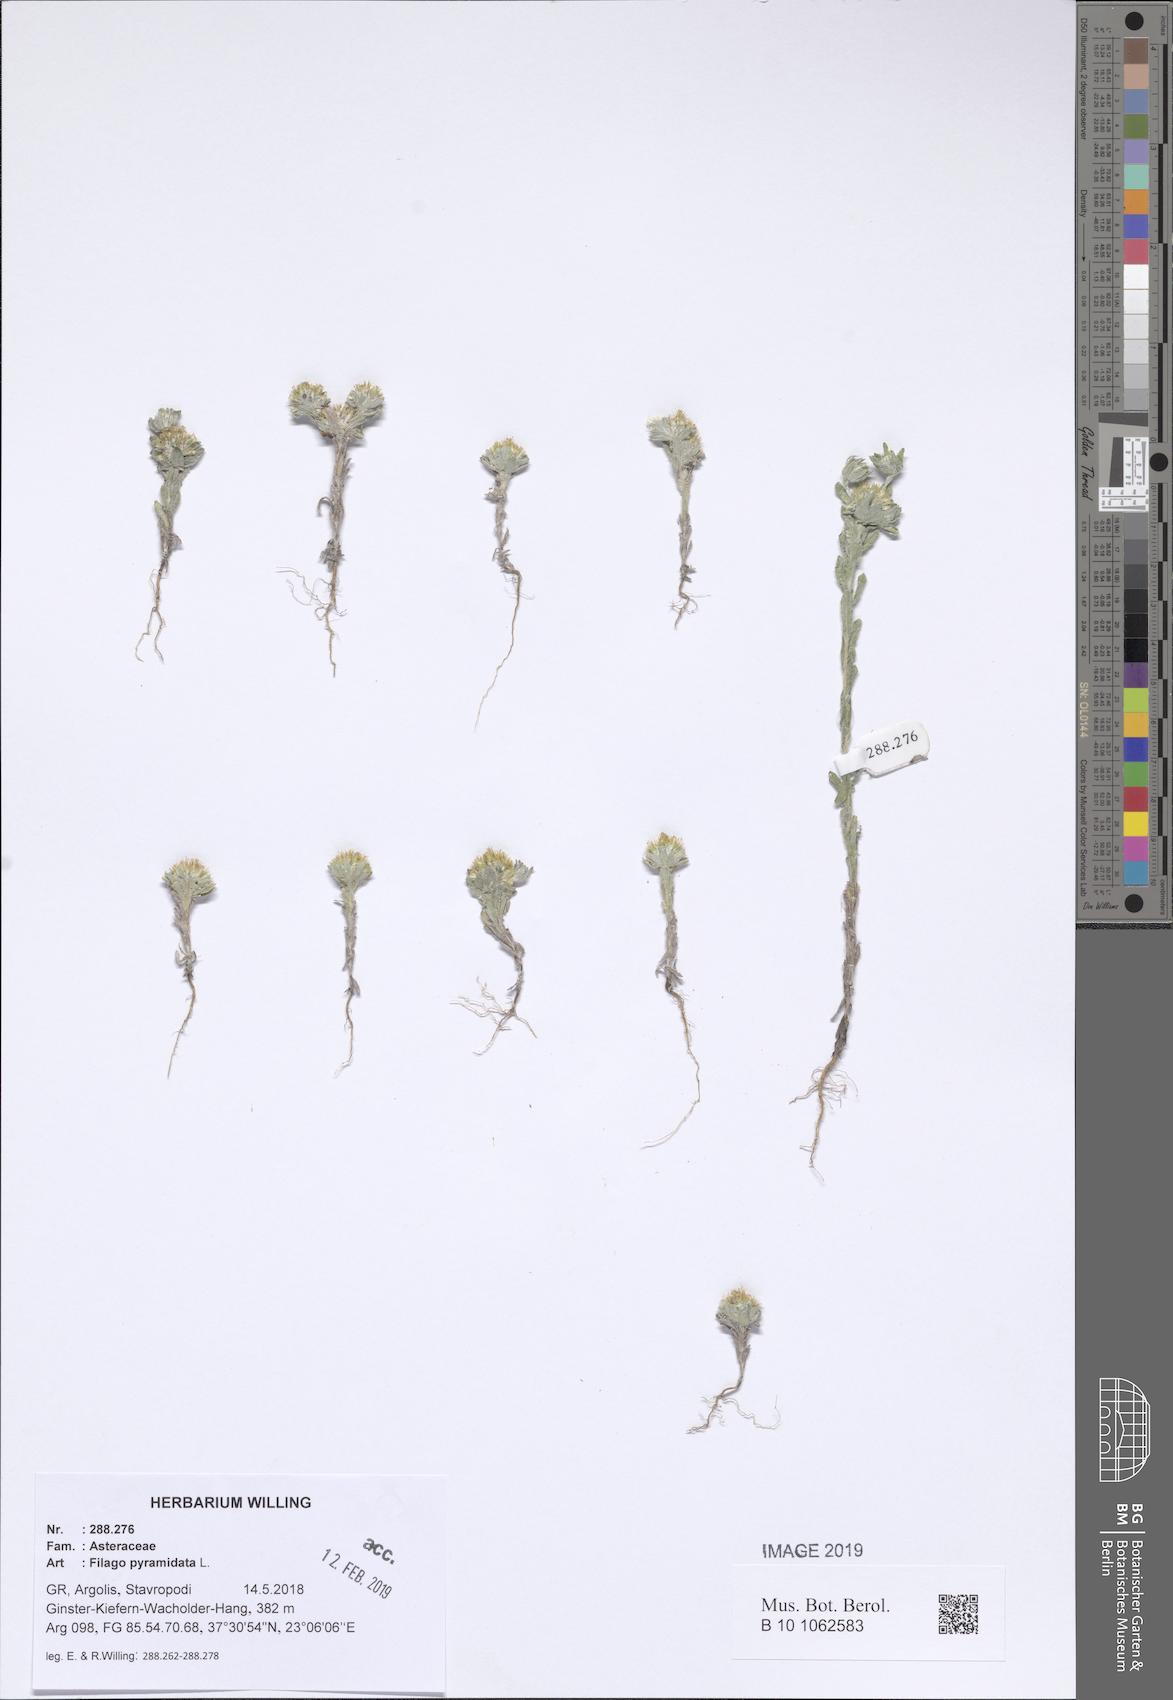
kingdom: Plantae
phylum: Tracheophyta
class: Magnoliopsida
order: Asterales
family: Asteraceae
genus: Filago
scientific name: Filago pyramidata
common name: Broad-leaved cudweed
